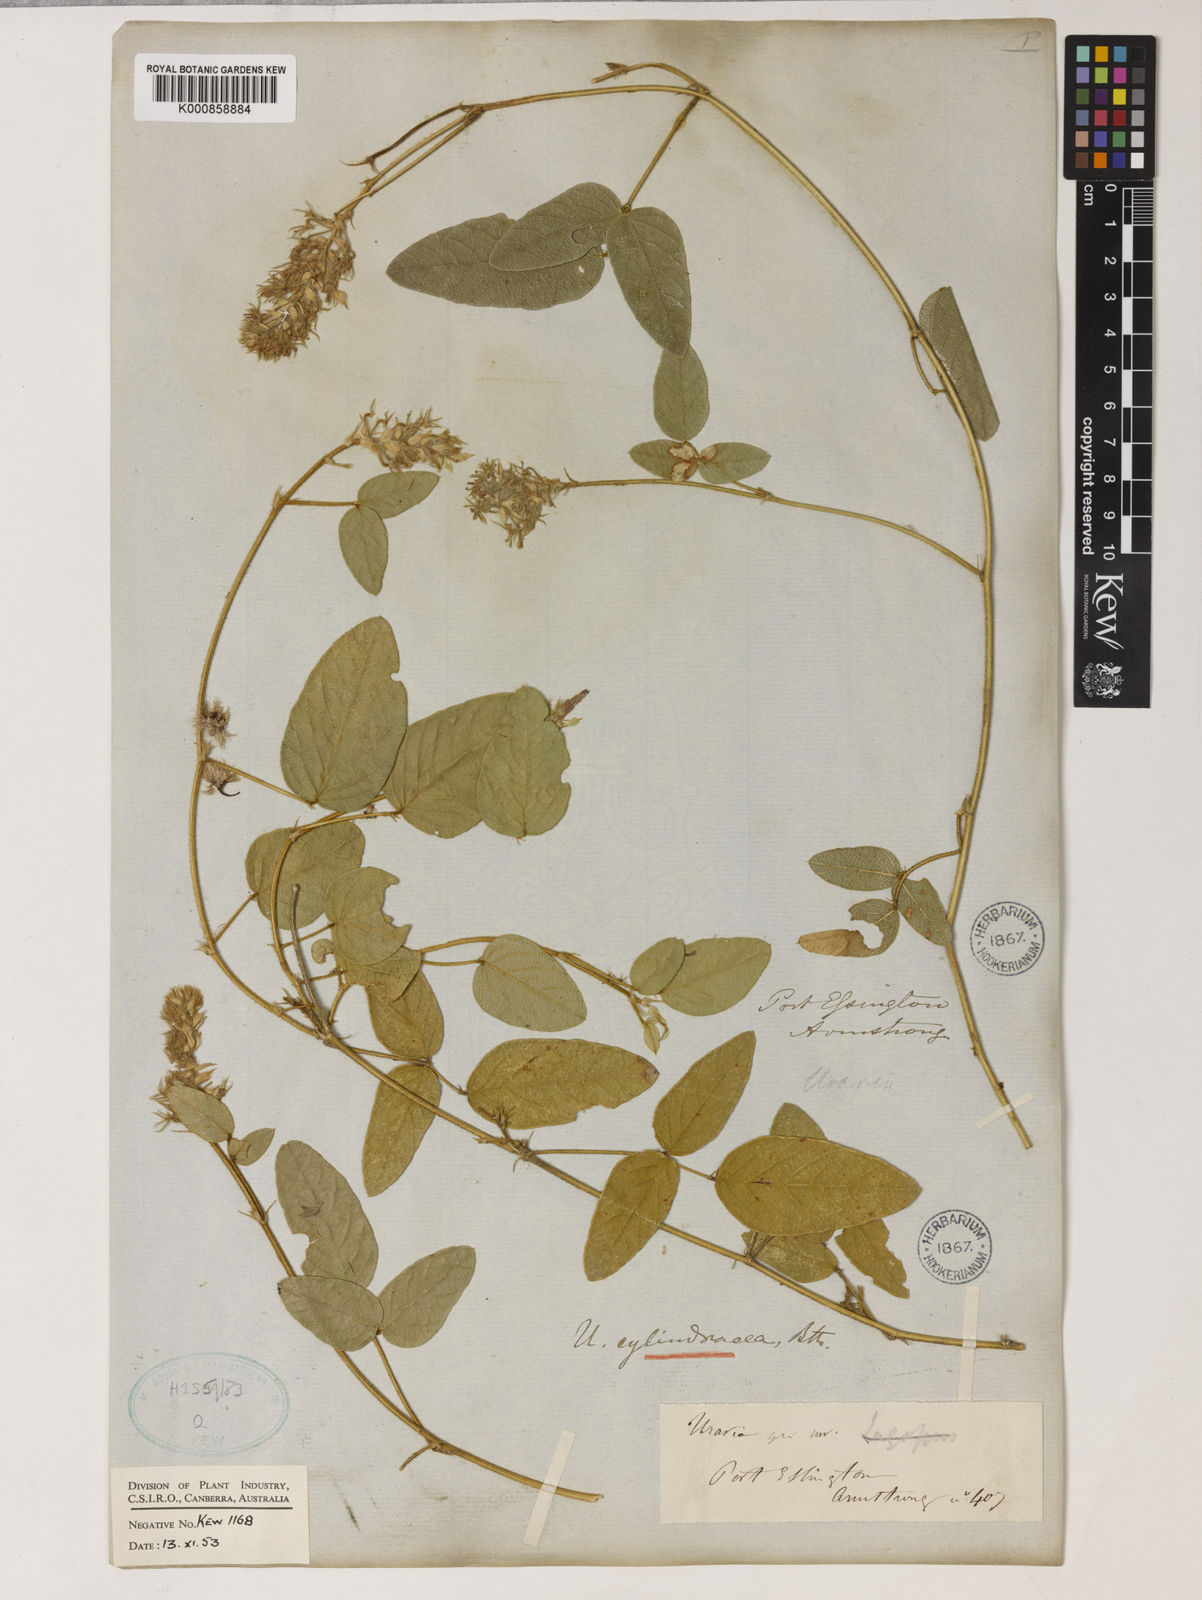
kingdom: Plantae
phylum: Tracheophyta
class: Magnoliopsida
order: Fabales
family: Fabaceae
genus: Uraria
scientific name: Uraria lagopodioides
